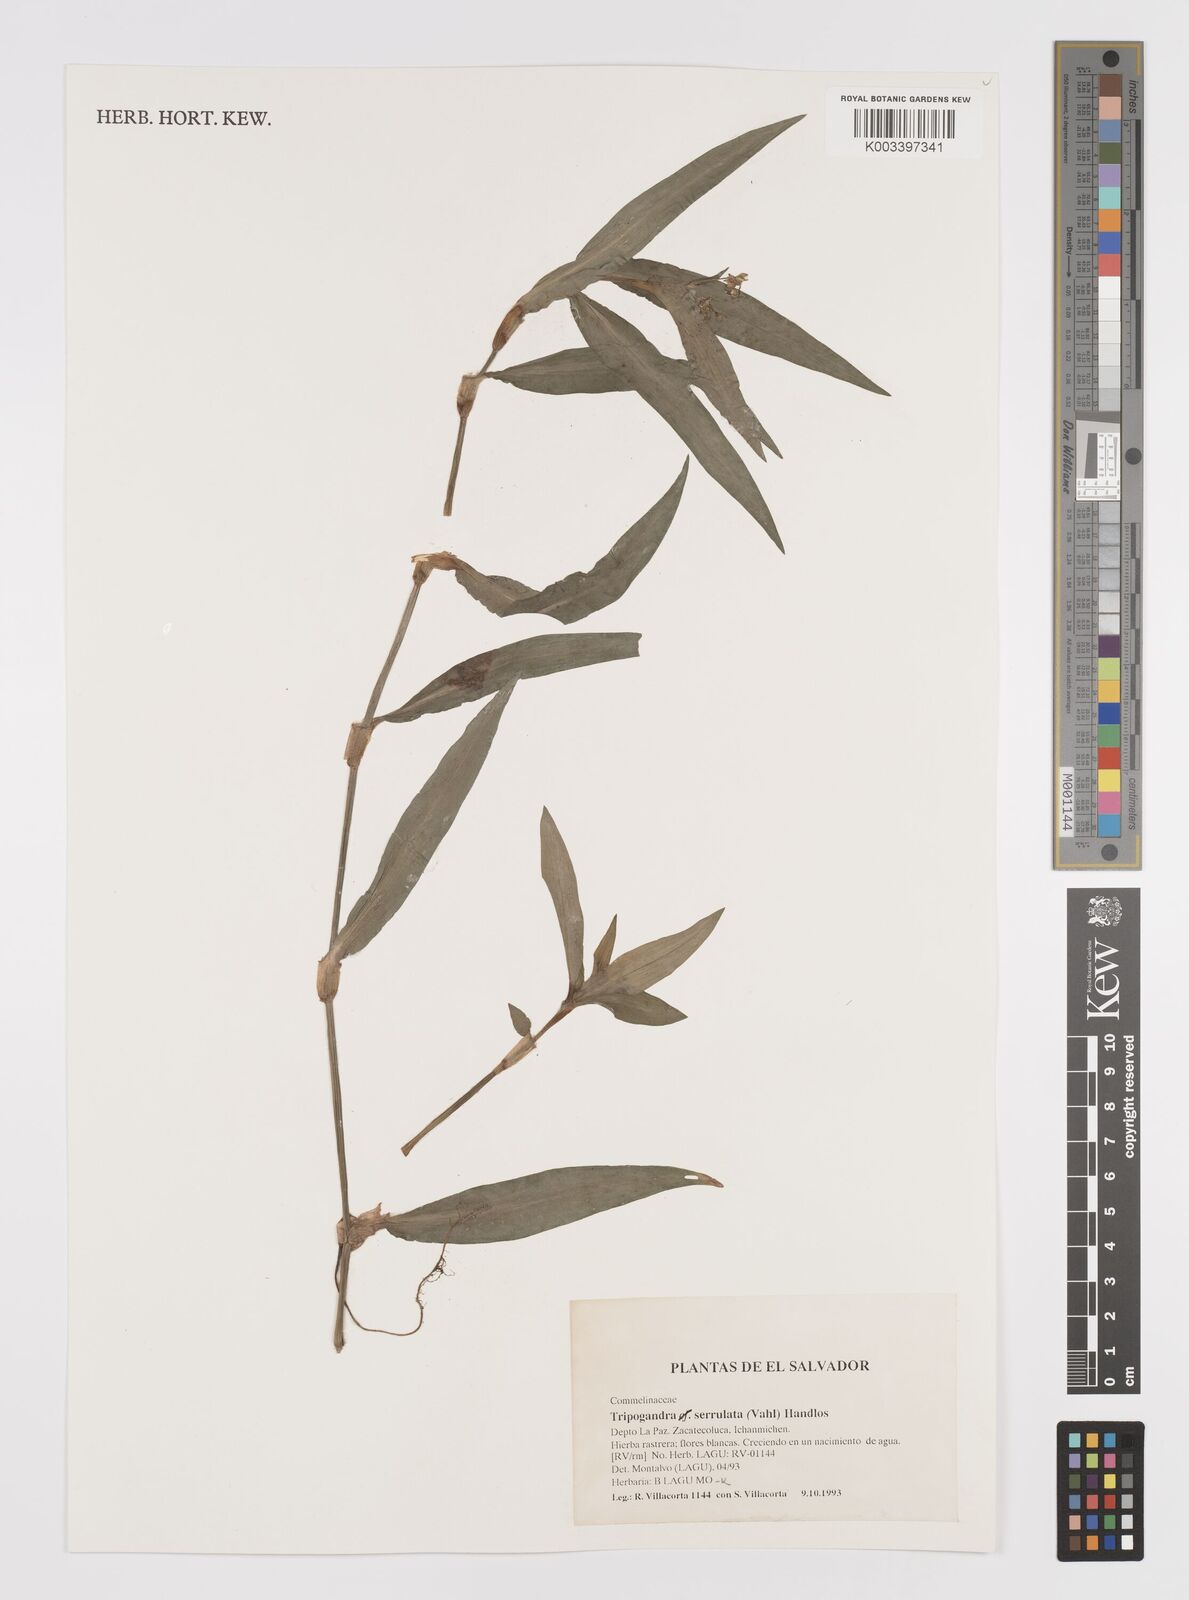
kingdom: Plantae
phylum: Tracheophyta
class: Liliopsida
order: Commelinales
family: Commelinaceae
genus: Callisia
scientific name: Callisia serrulata
